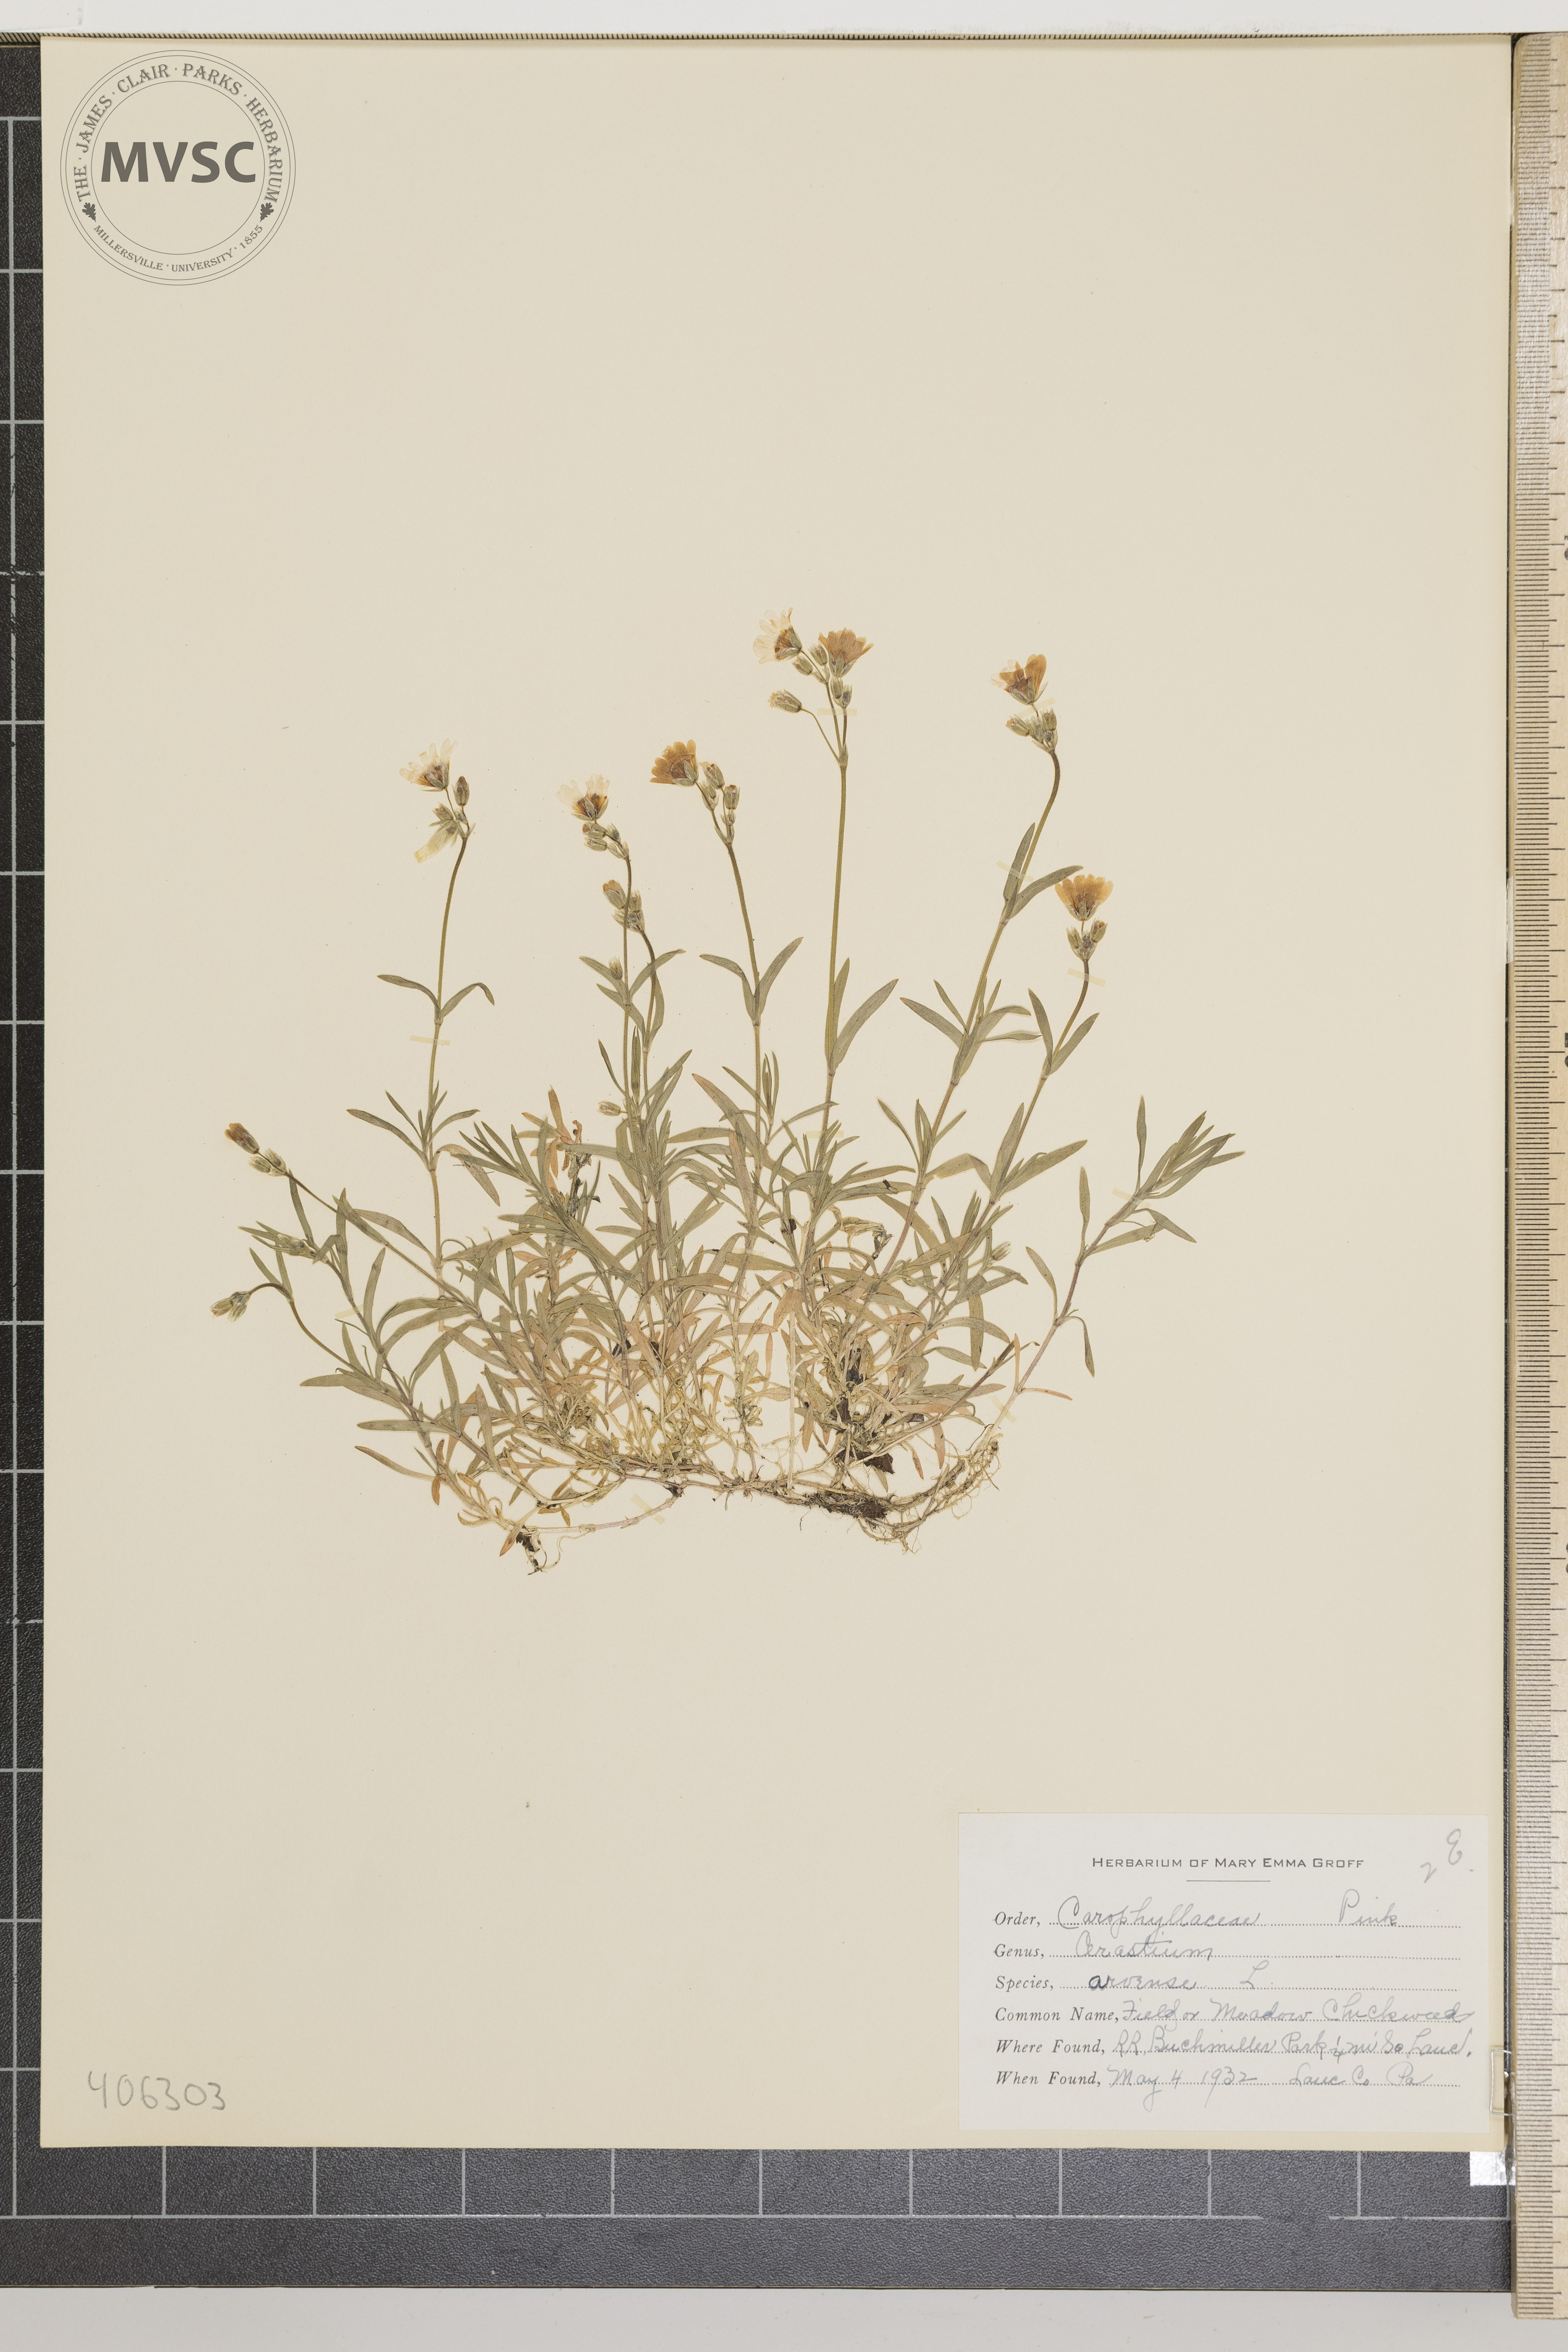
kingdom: Plantae
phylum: Tracheophyta
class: Magnoliopsida
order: Caryophyllales
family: Caryophyllaceae
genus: Cerastium
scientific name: Cerastium arvense
